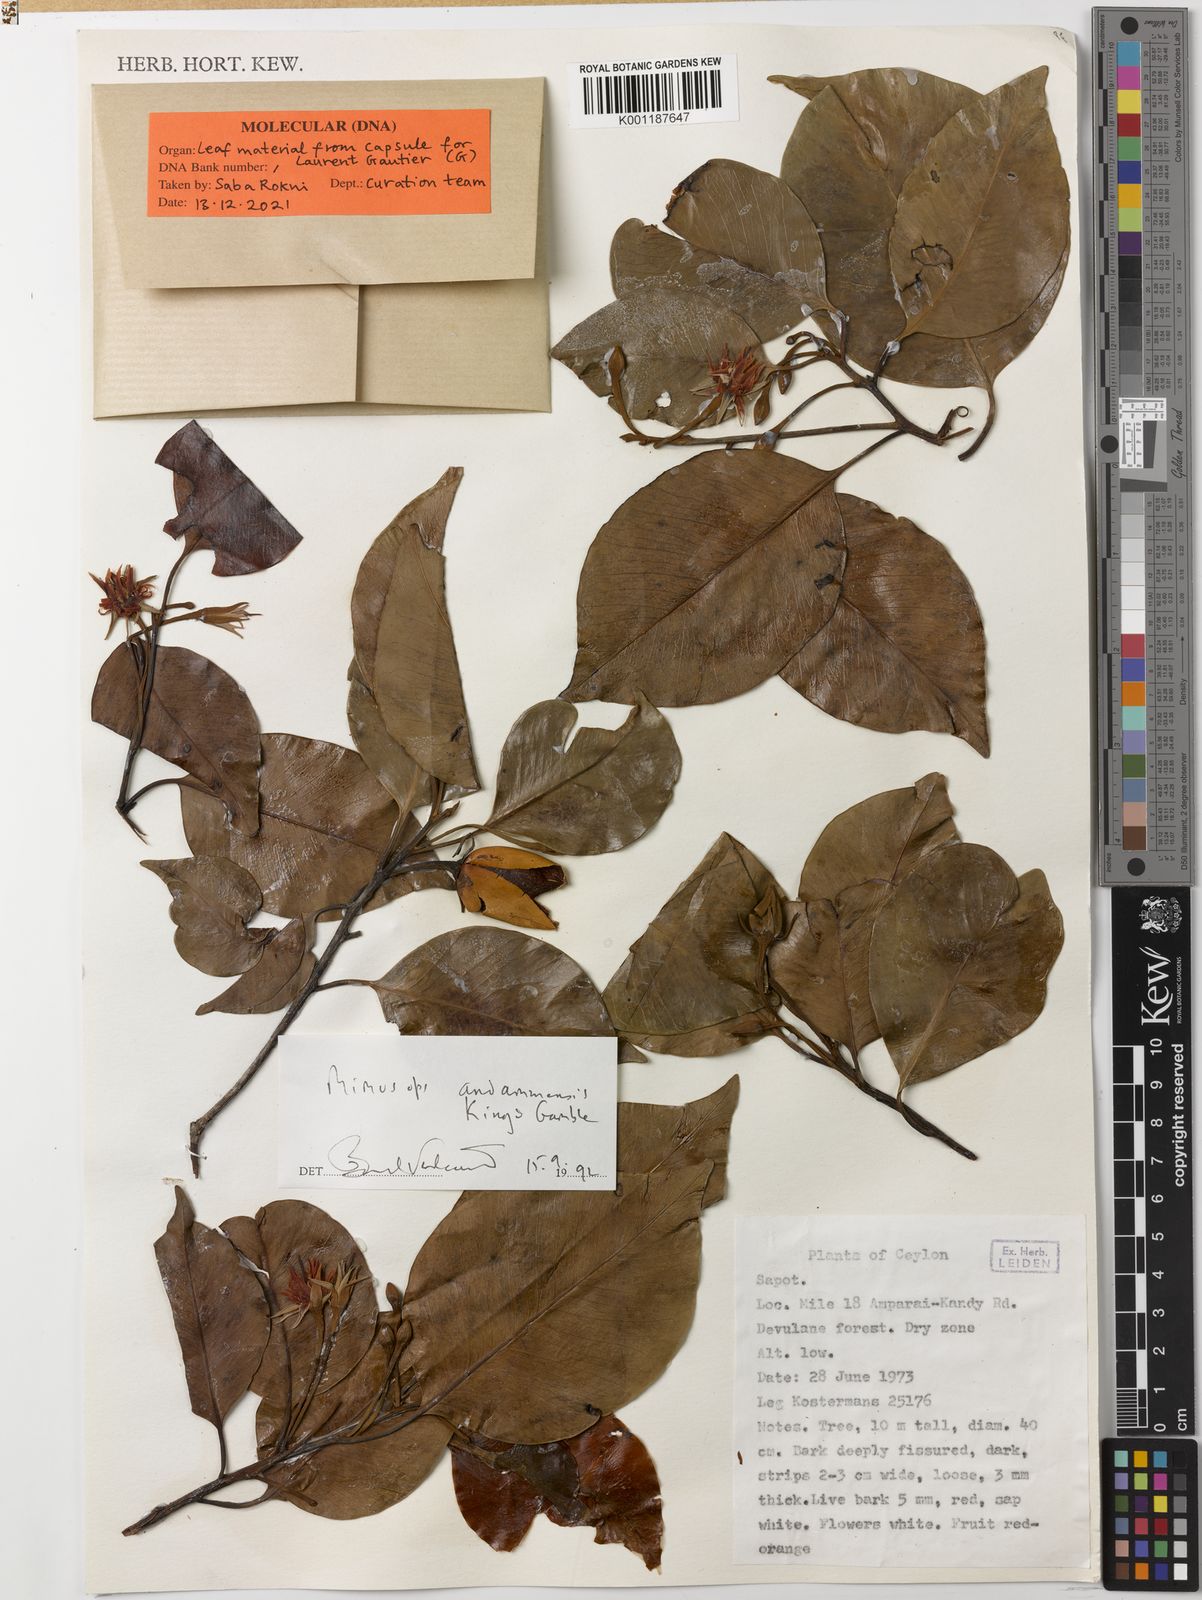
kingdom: Plantae
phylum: Tracheophyta
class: Magnoliopsida
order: Ericales
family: Sapotaceae
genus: Mimusops
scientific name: Mimusops andamanensis
